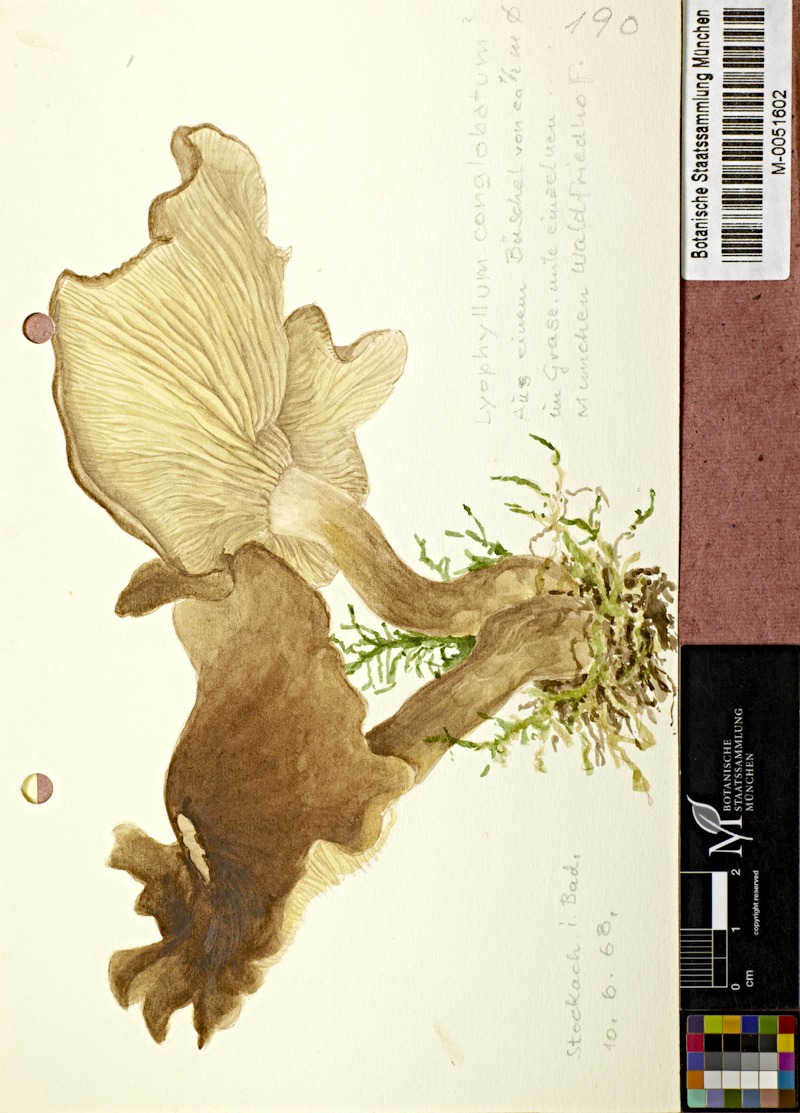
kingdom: Fungi
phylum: Basidiomycota
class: Agaricomycetes
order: Agaricales
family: Lyophyllaceae
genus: Lyophyllum
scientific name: Lyophyllum decastes
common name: Clustered domecap
